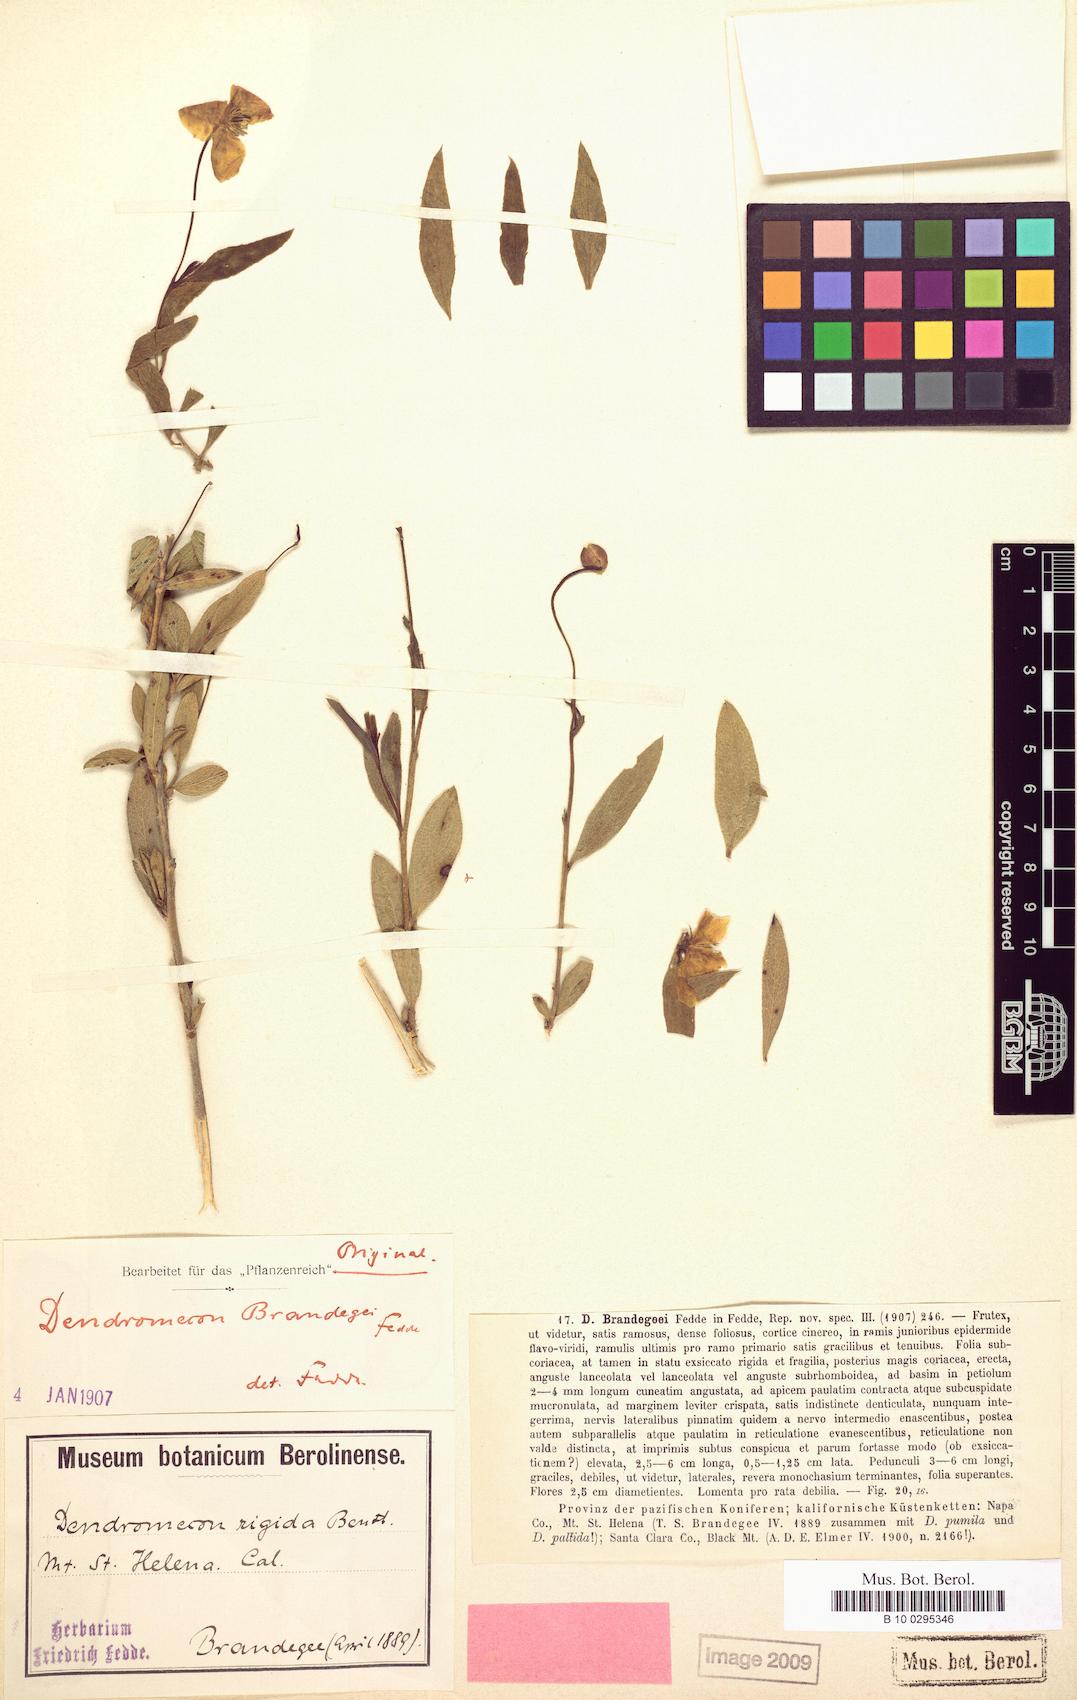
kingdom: Plantae
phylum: Tracheophyta
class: Magnoliopsida
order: Ranunculales
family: Papaveraceae
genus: Dendromecon
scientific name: Dendromecon rigida
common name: Tree poppy
